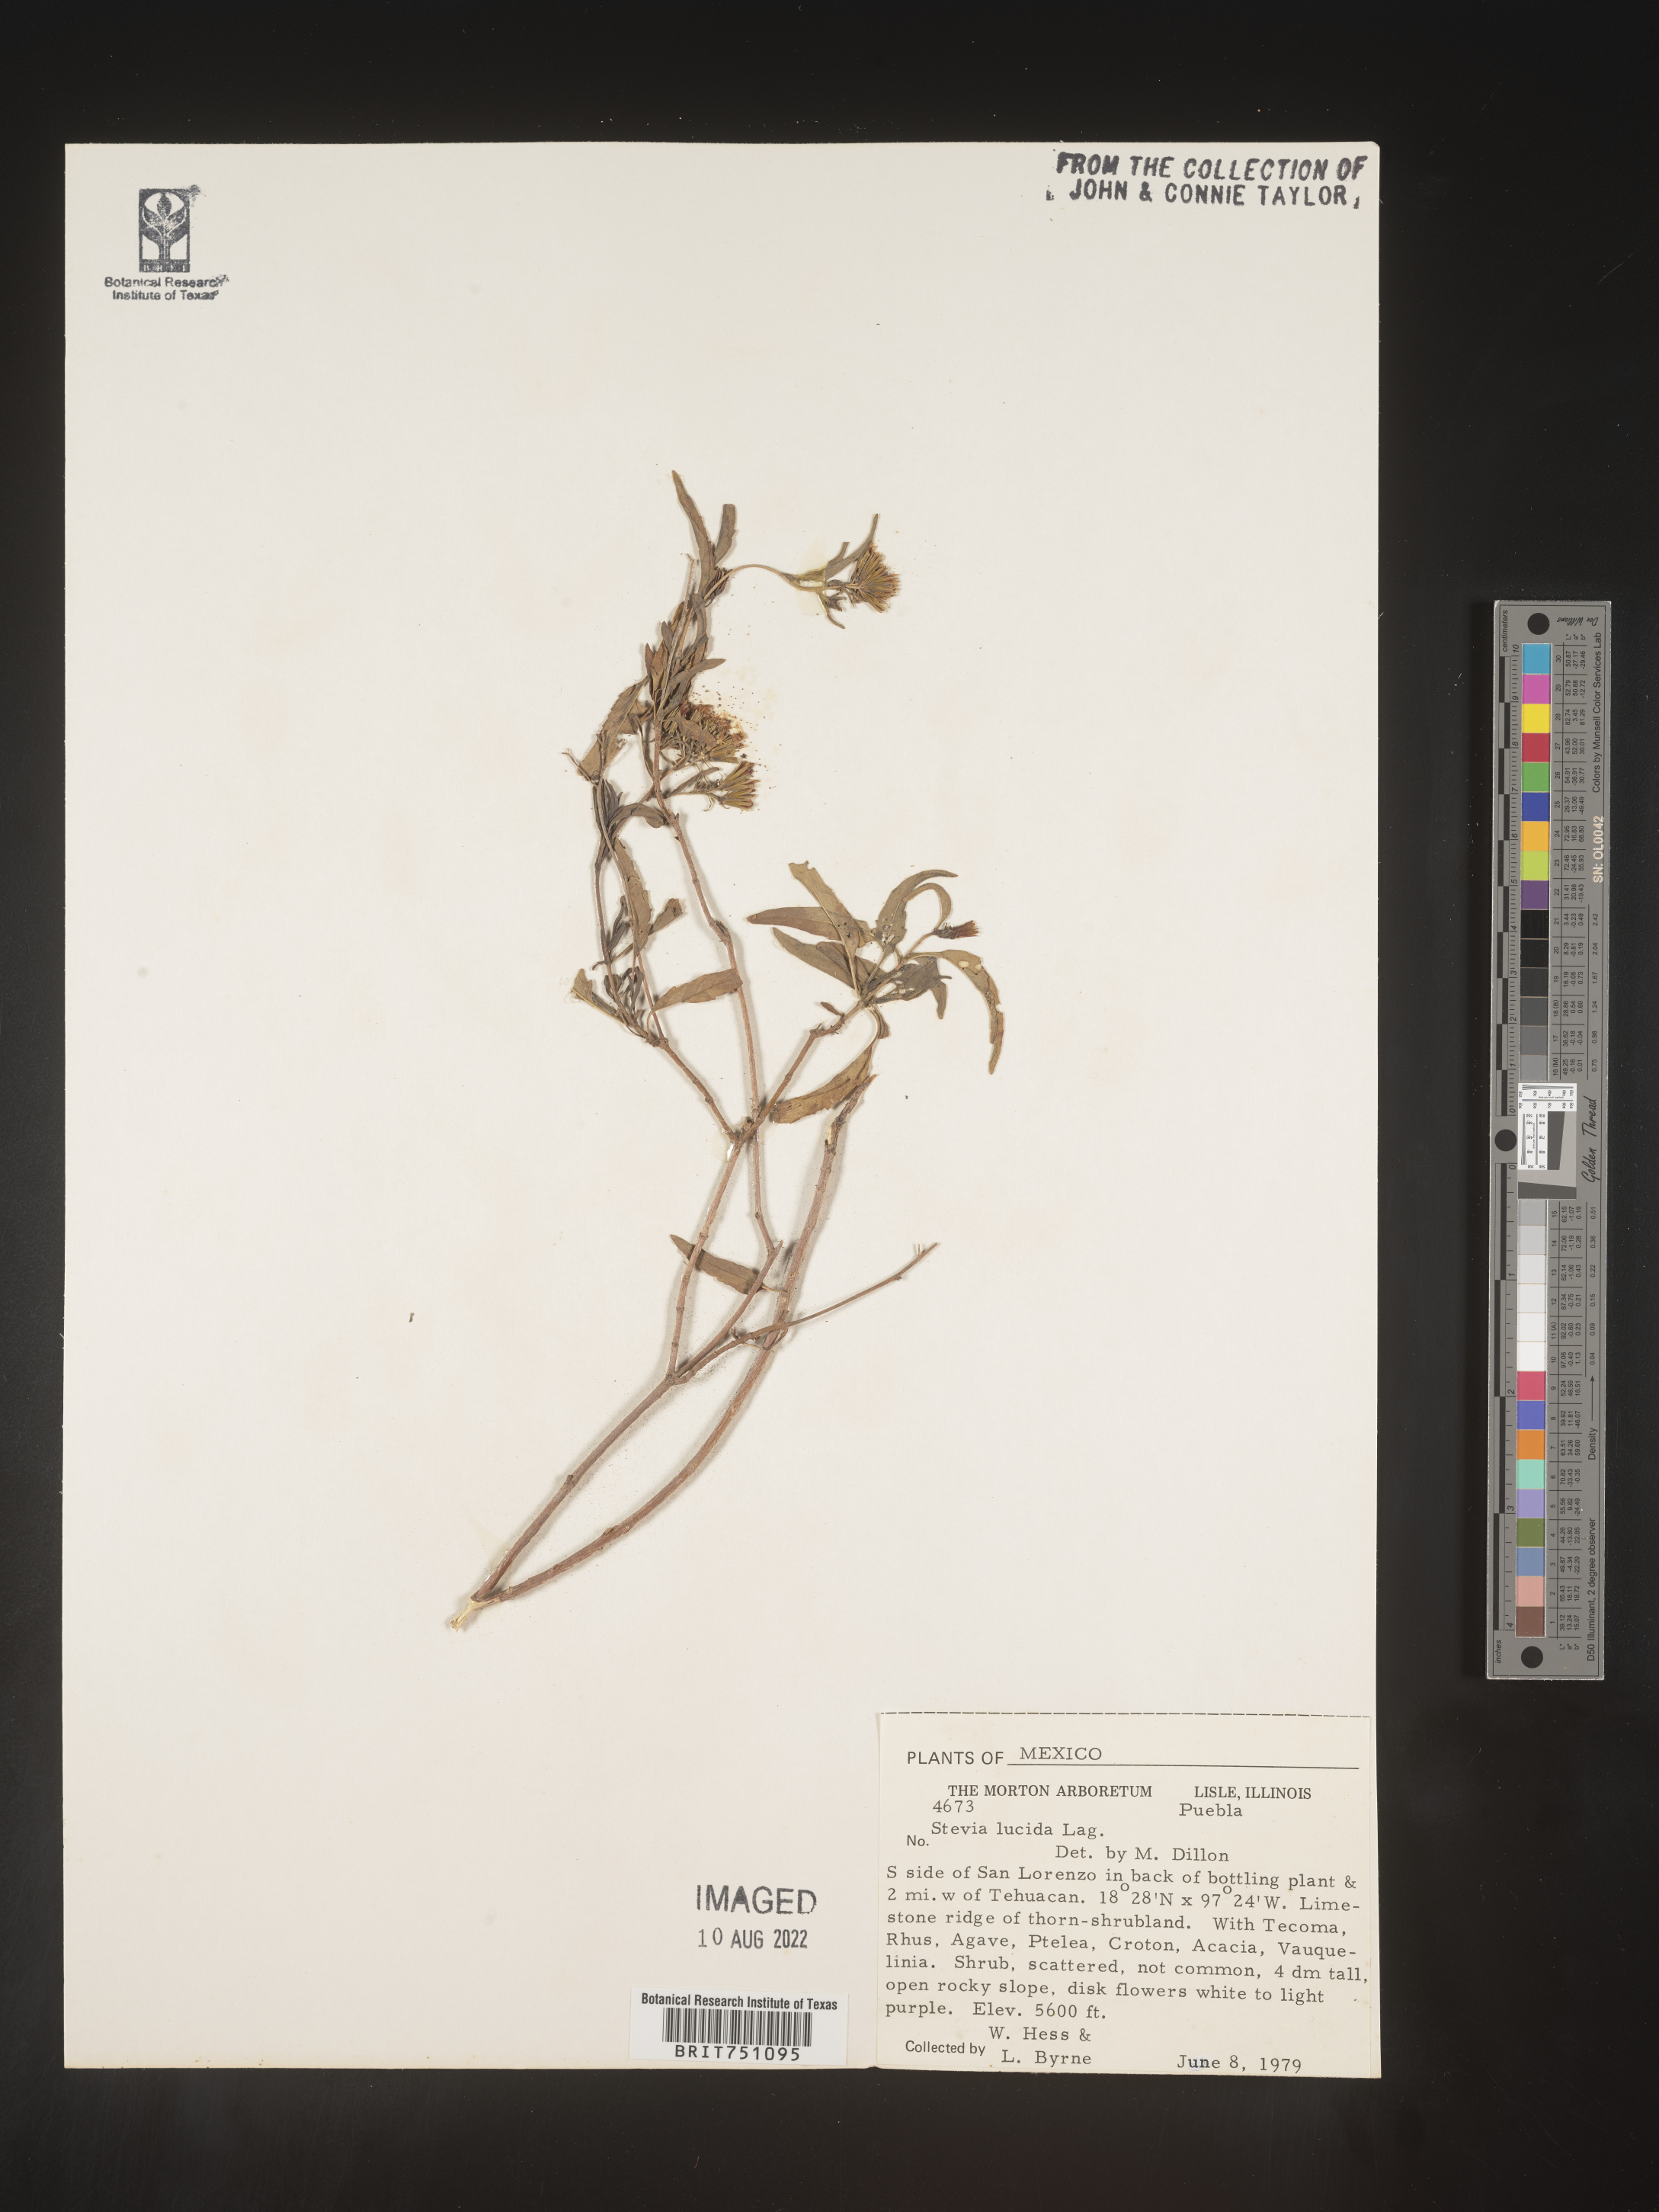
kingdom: Plantae
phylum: Tracheophyta
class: Magnoliopsida
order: Asterales
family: Asteraceae
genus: Stevia
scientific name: Stevia
